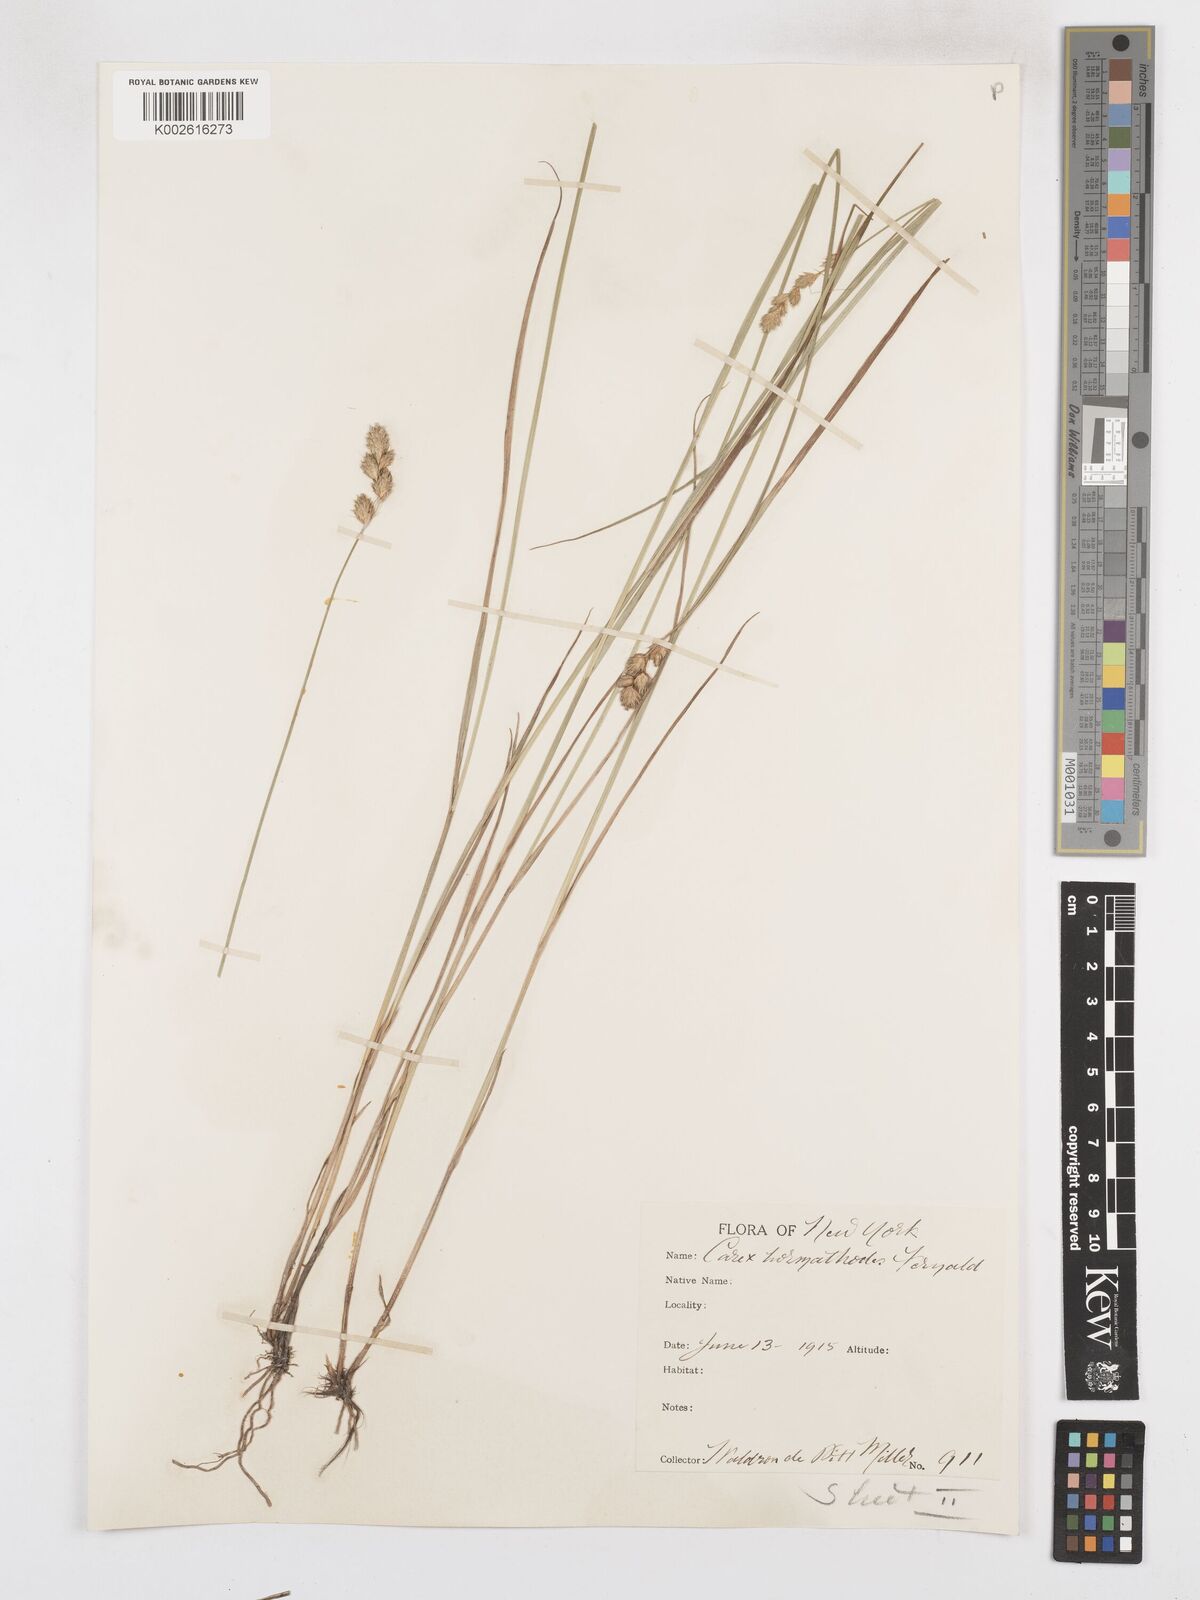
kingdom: Plantae
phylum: Tracheophyta
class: Liliopsida
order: Poales
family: Cyperaceae
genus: Carex
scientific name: Carex hormathodes
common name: Marsh straw sedge
